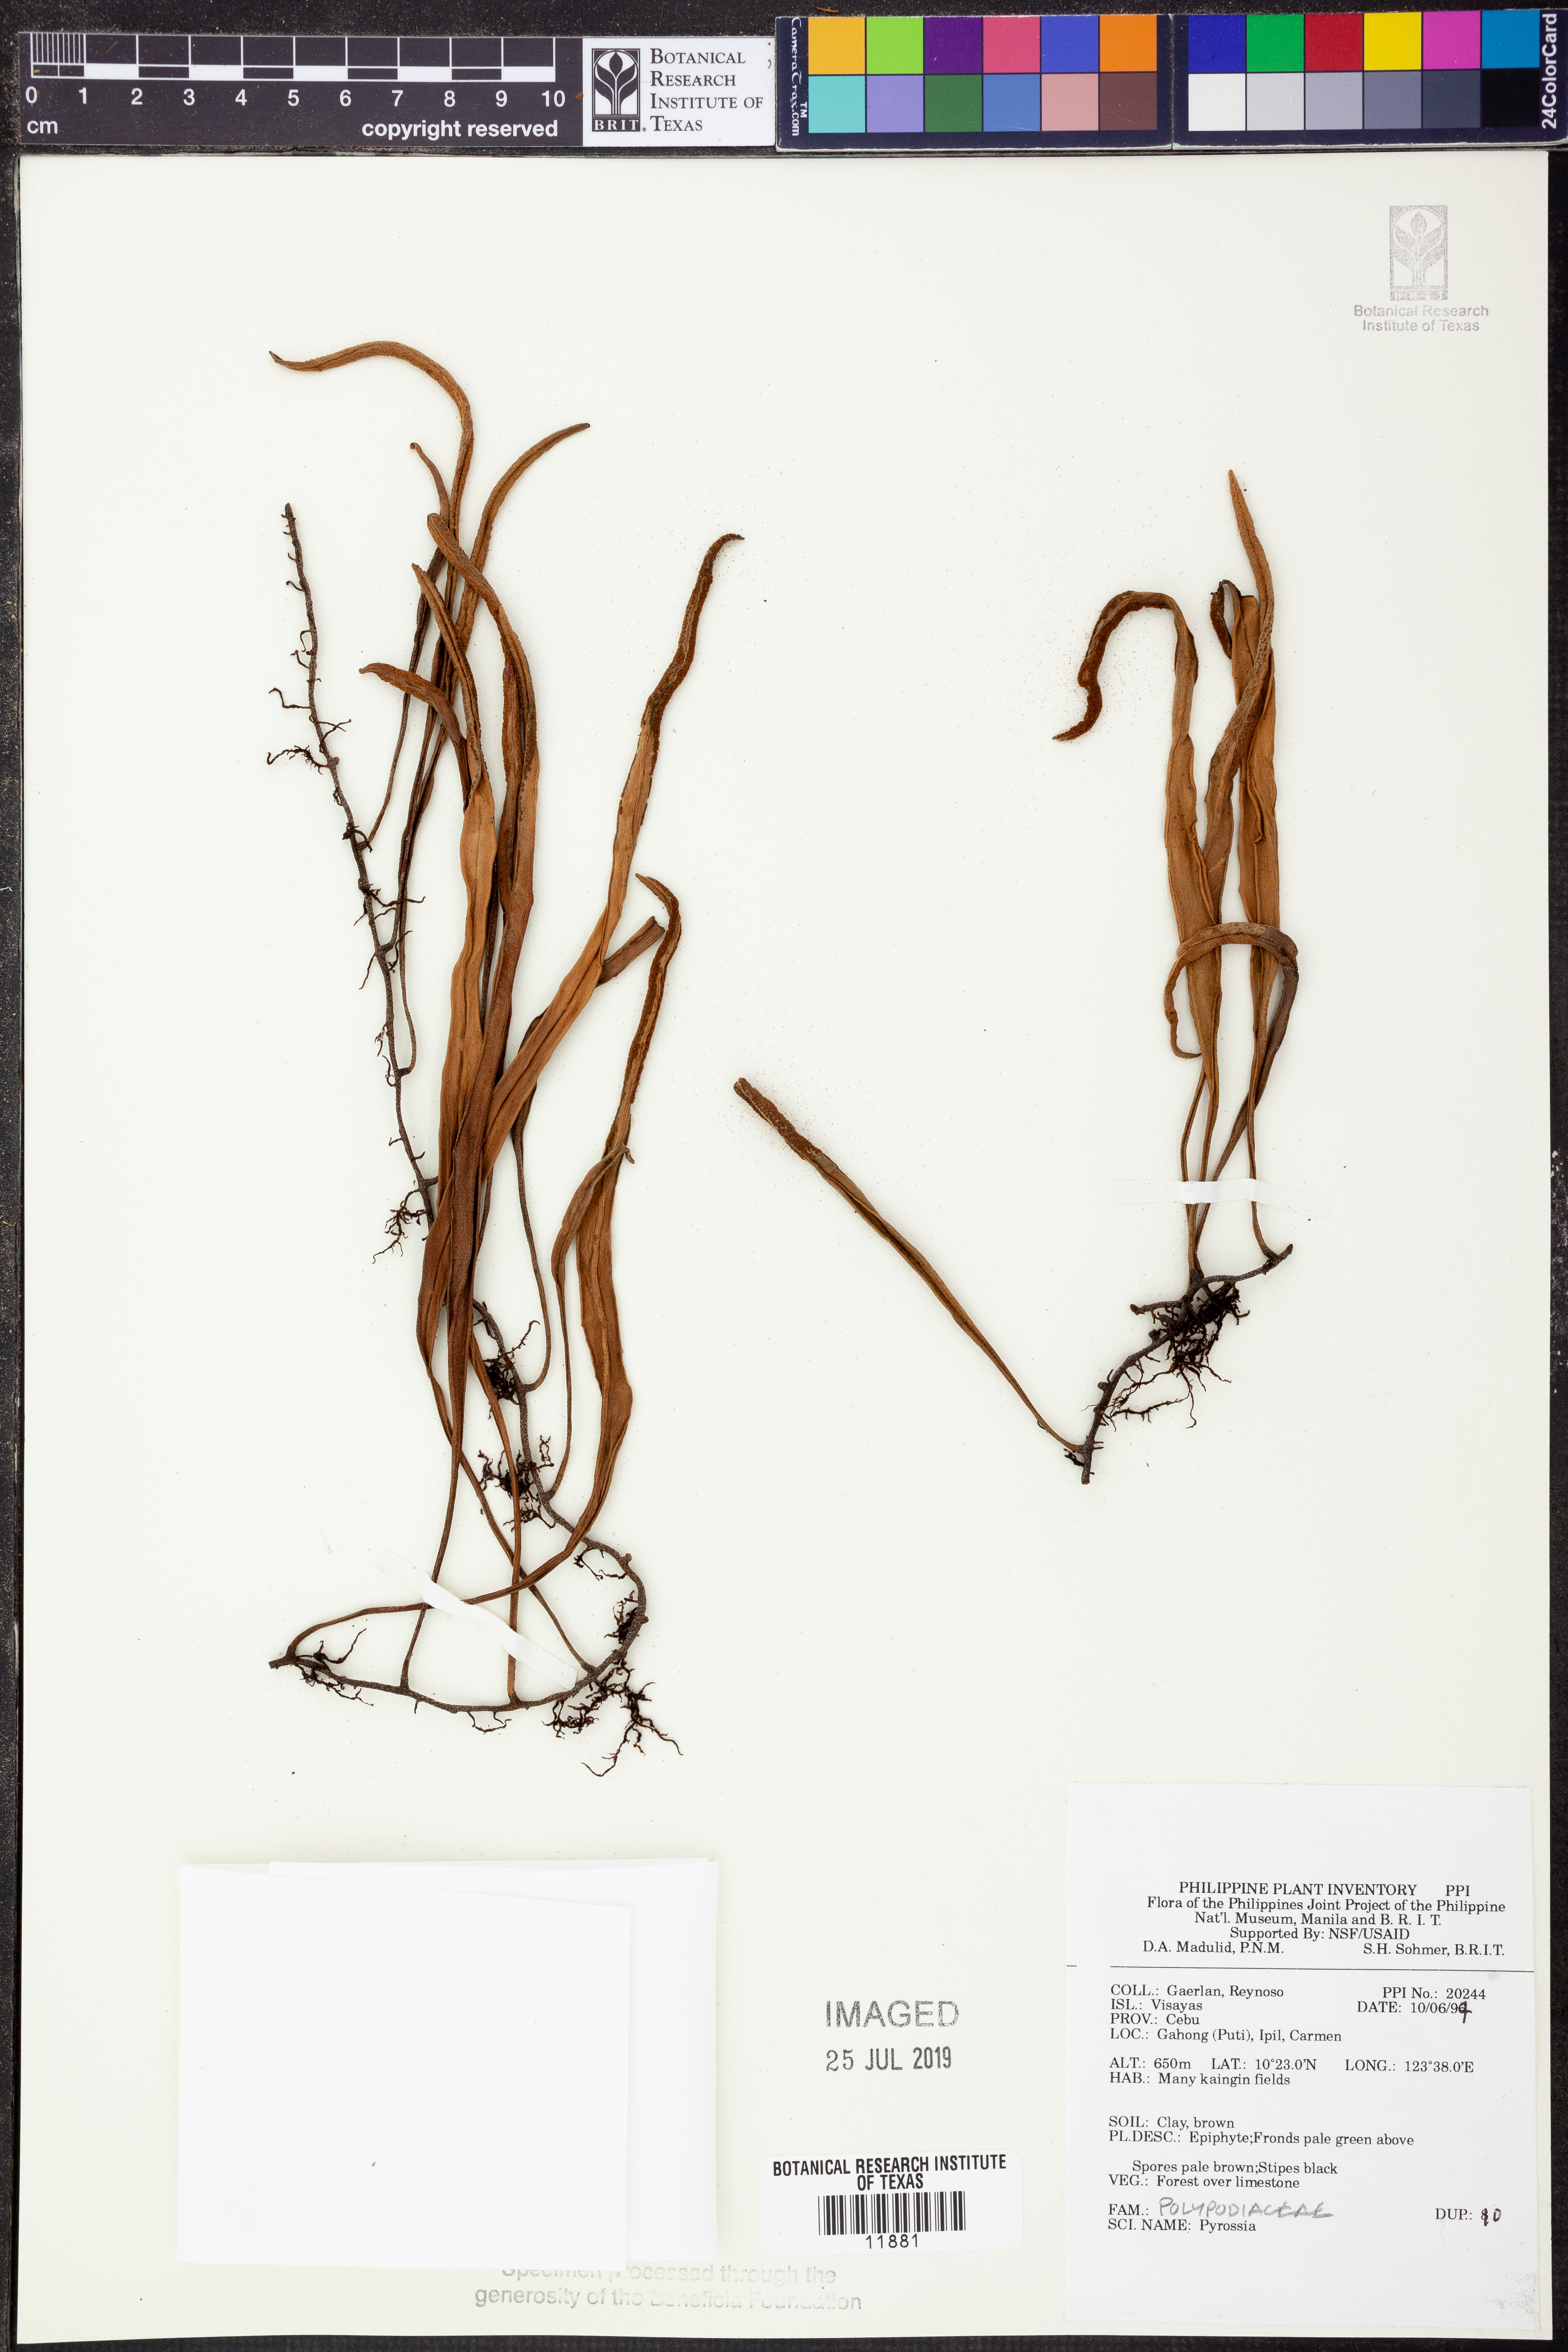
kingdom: Plantae
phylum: Tracheophyta
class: Polypodiopsida
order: Polypodiales
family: Polypodiaceae
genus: Pyrrosia
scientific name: Pyrrosia
